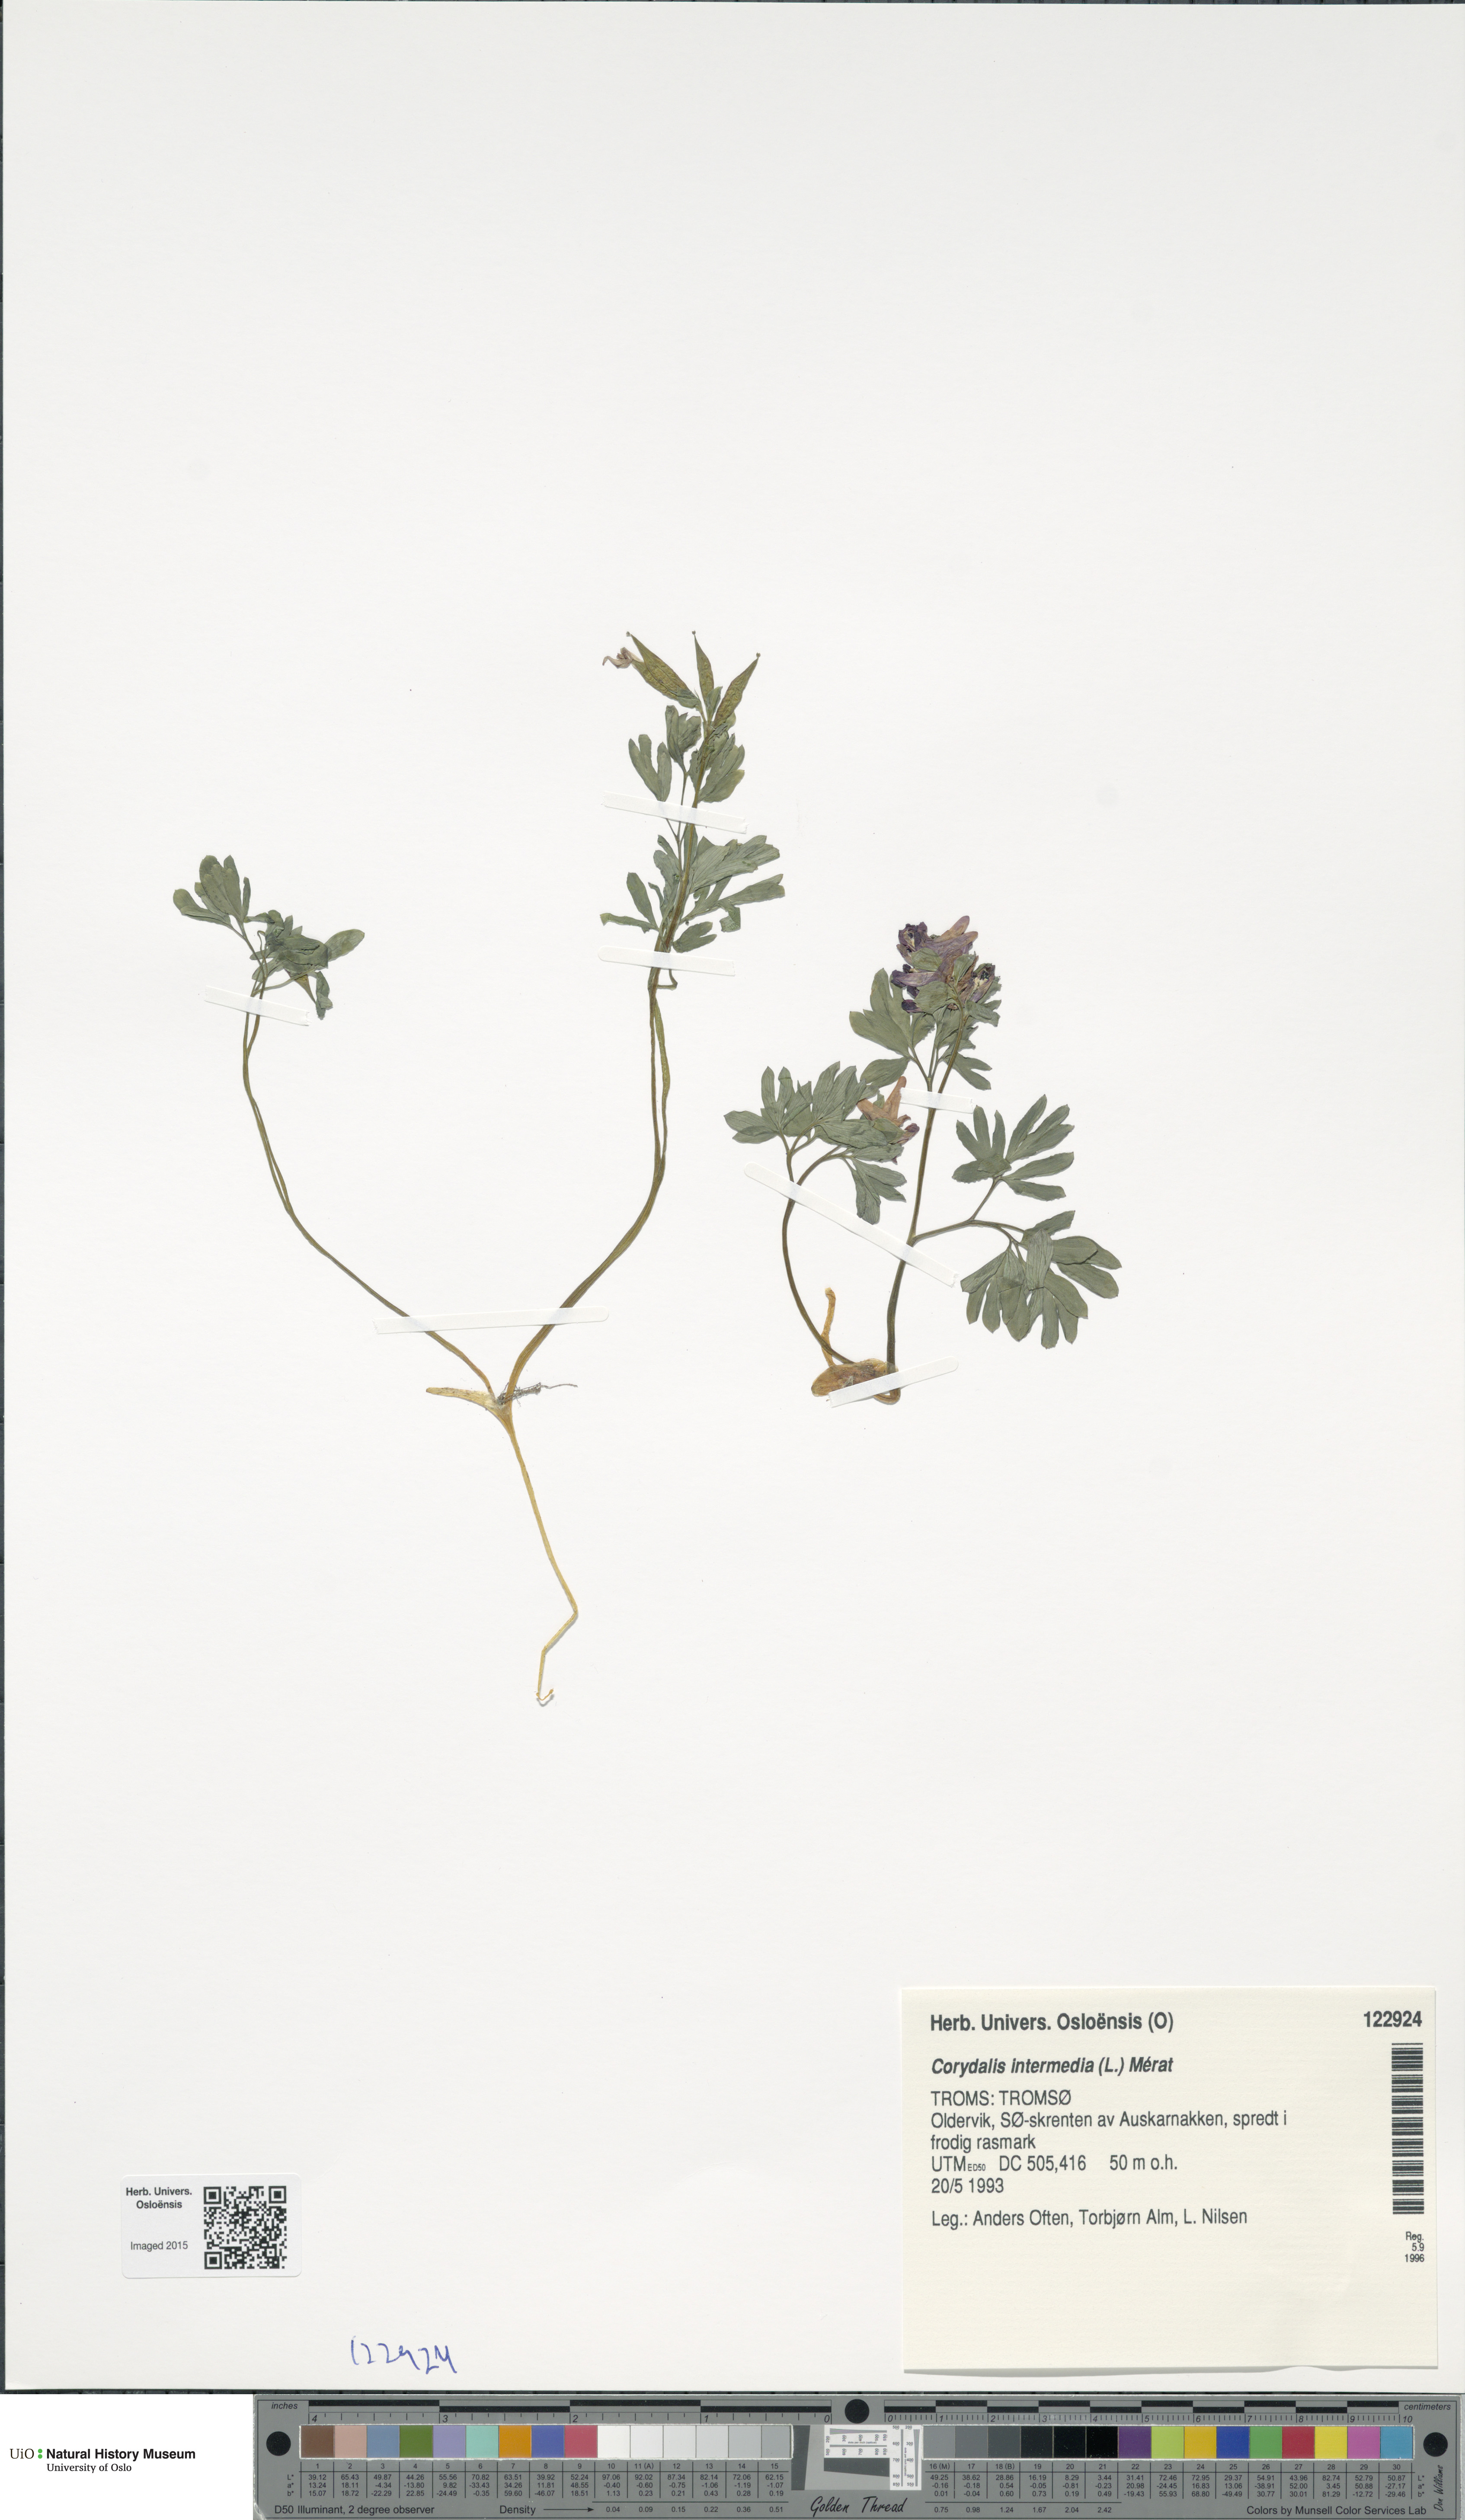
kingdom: Plantae
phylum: Tracheophyta
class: Magnoliopsida
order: Ranunculales
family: Papaveraceae
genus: Corydalis
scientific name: Corydalis intermedia
